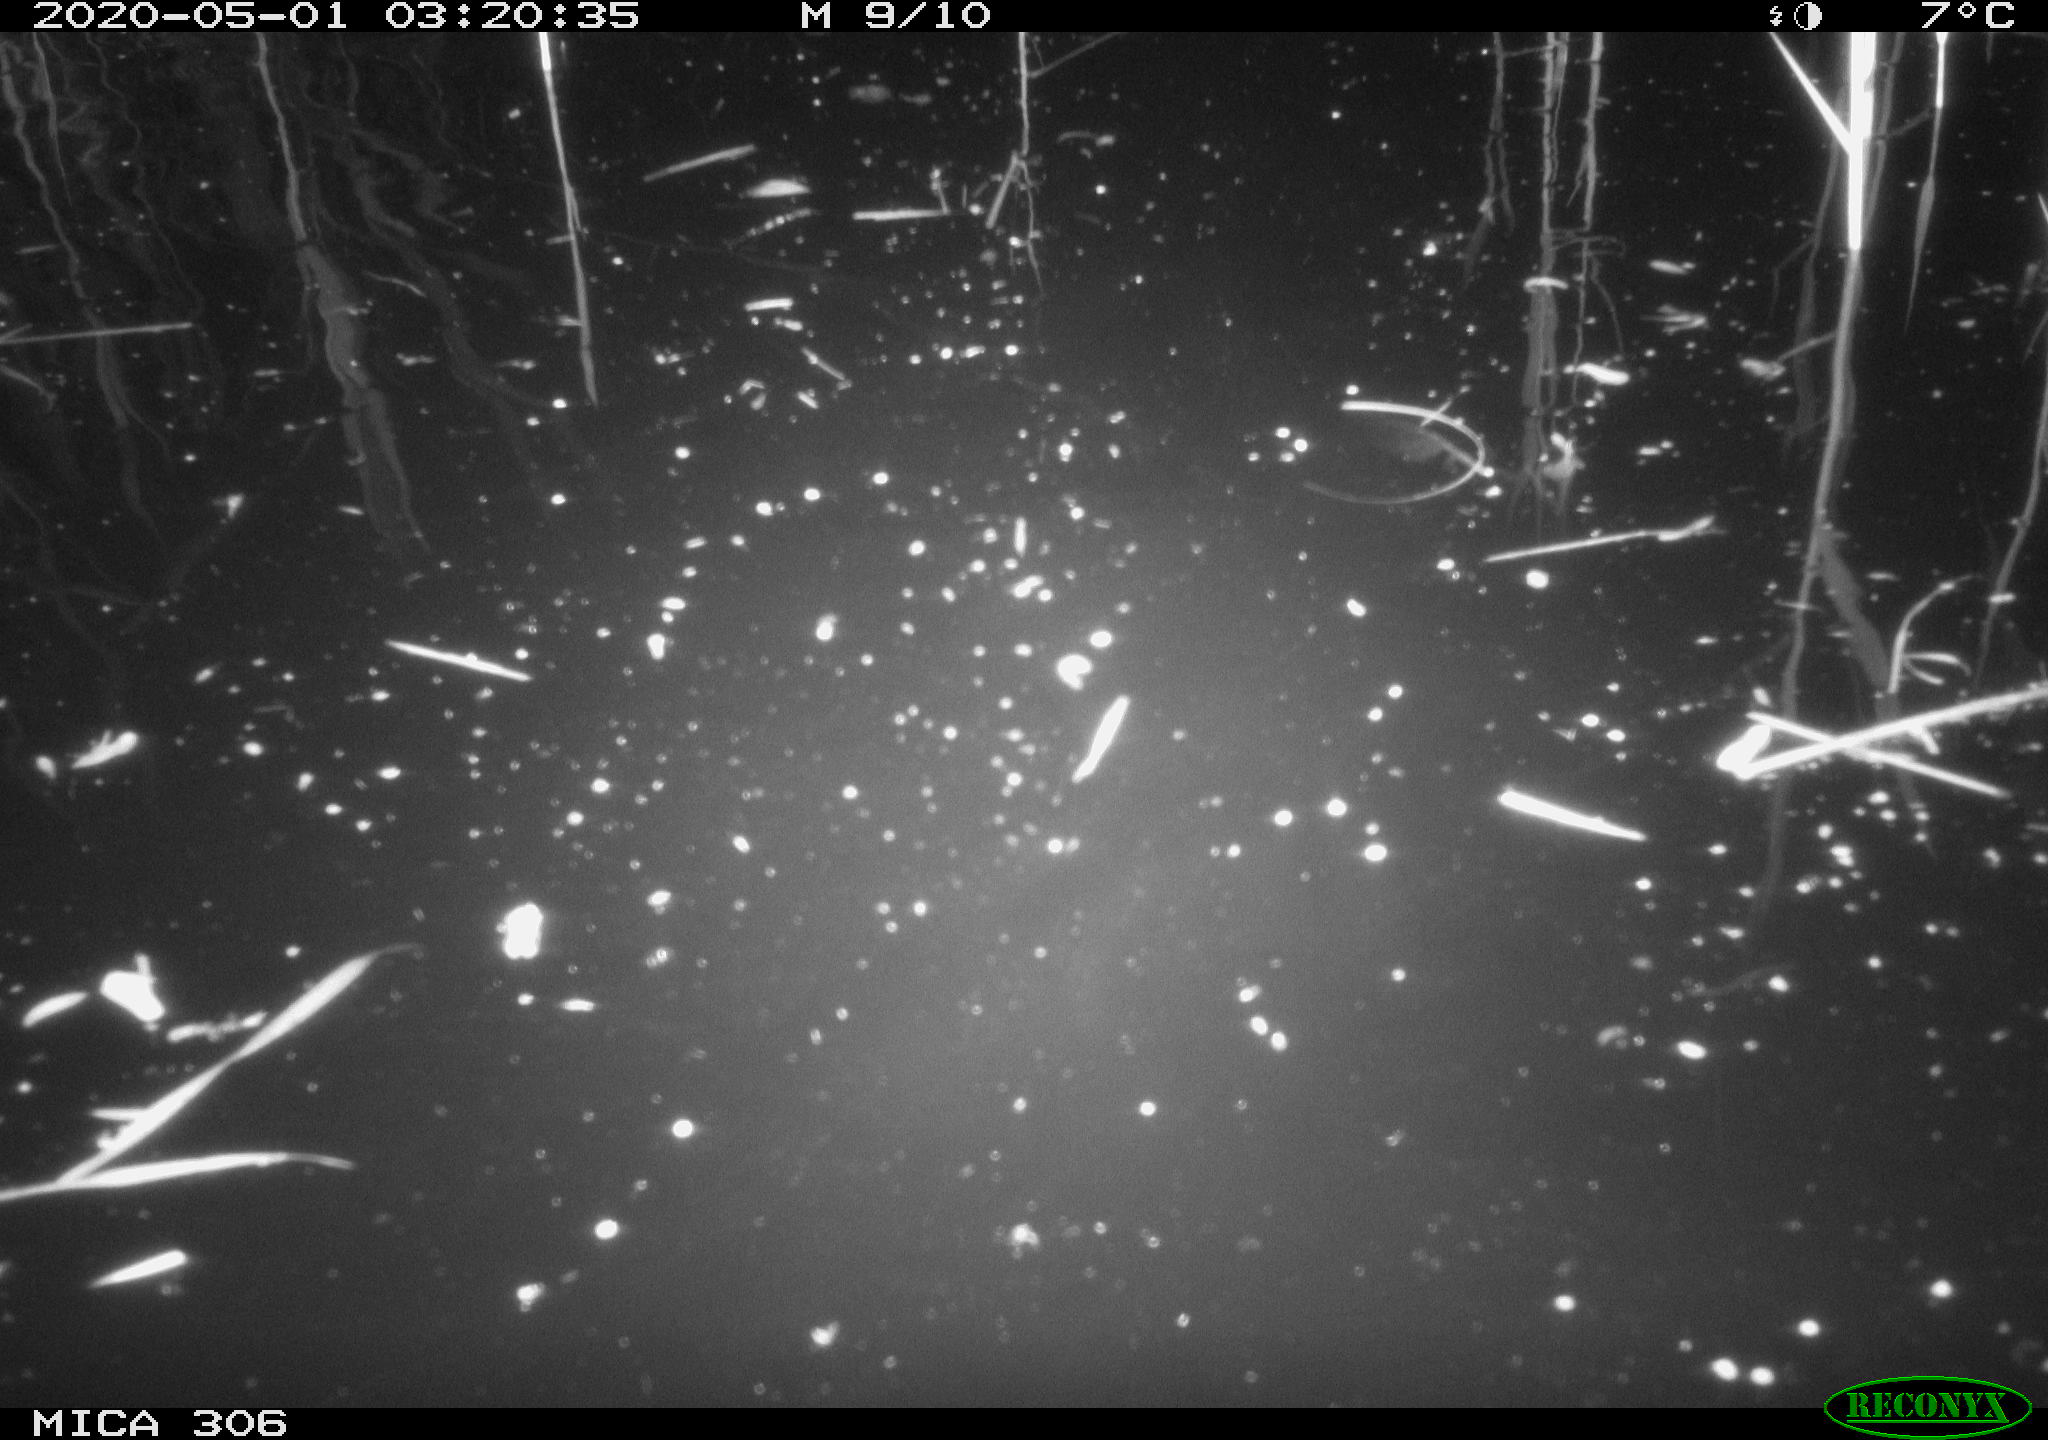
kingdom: Animalia
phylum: Chordata
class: Mammalia
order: Rodentia
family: Cricetidae
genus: Ondatra
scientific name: Ondatra zibethicus
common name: Muskrat
